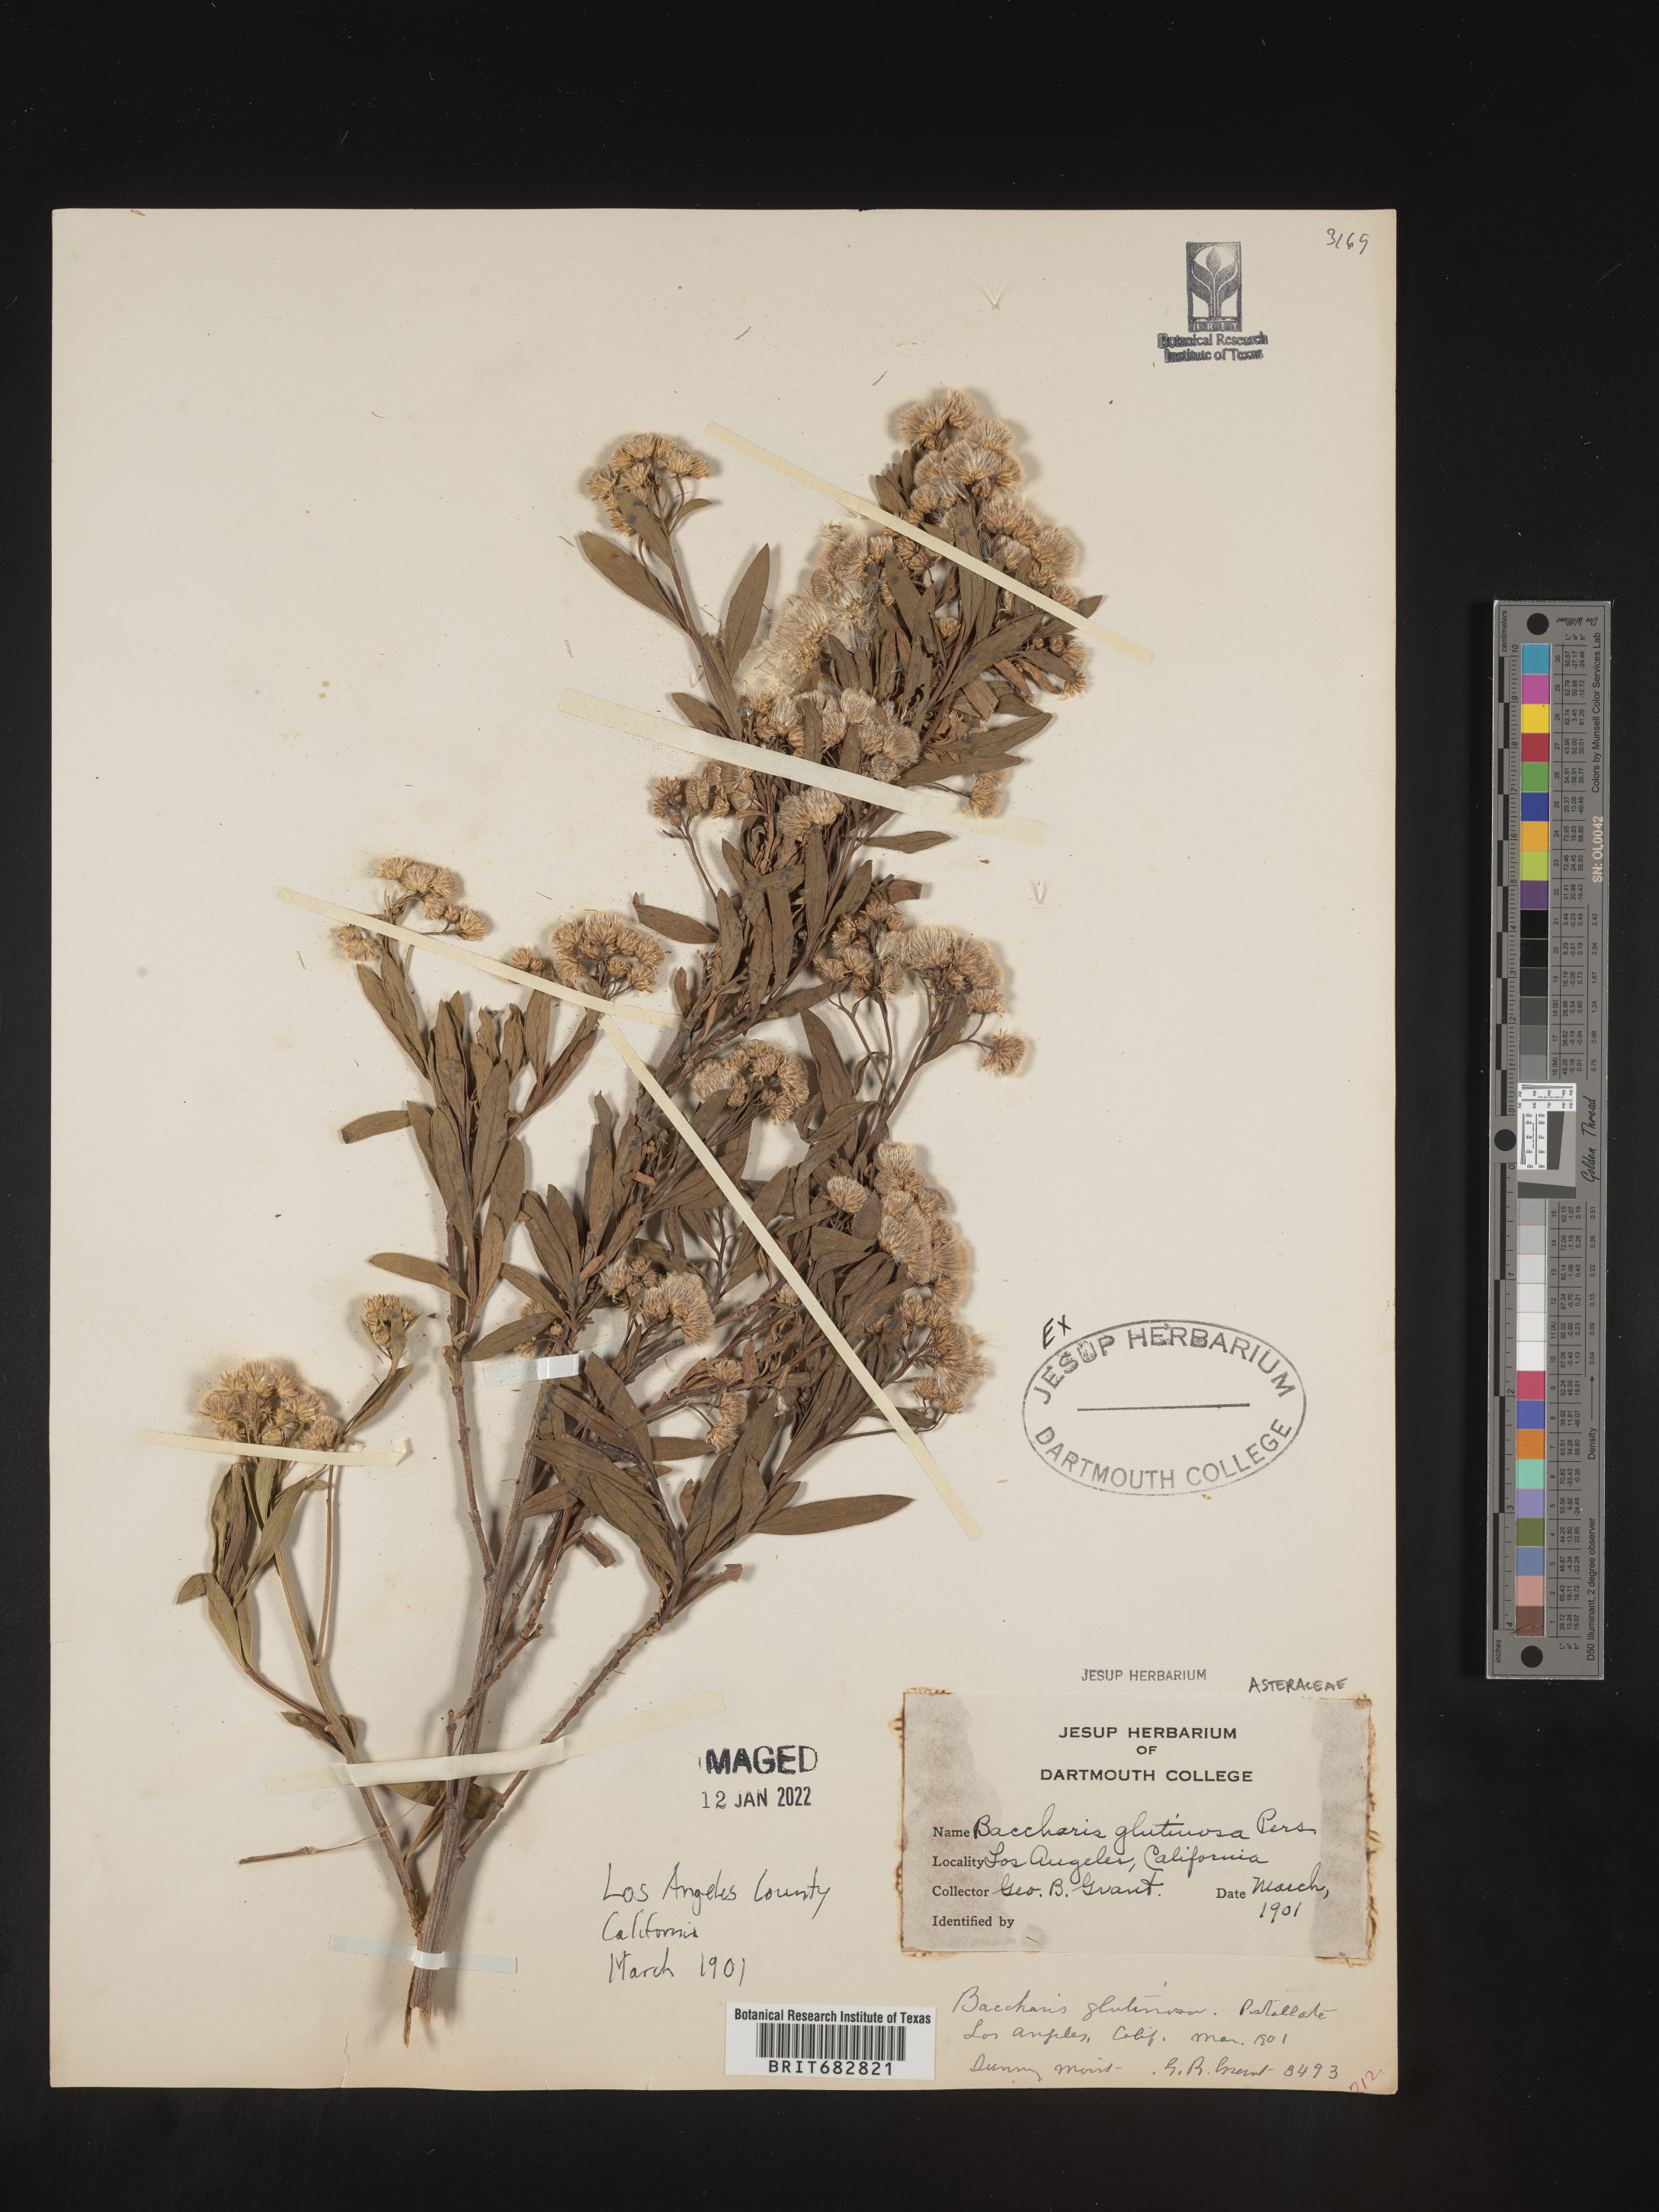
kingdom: Plantae
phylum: Tracheophyta
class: Magnoliopsida
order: Asterales
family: Asteraceae
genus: Baccharis
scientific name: Baccharis glutinosa
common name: Saltmarsh baccharis
